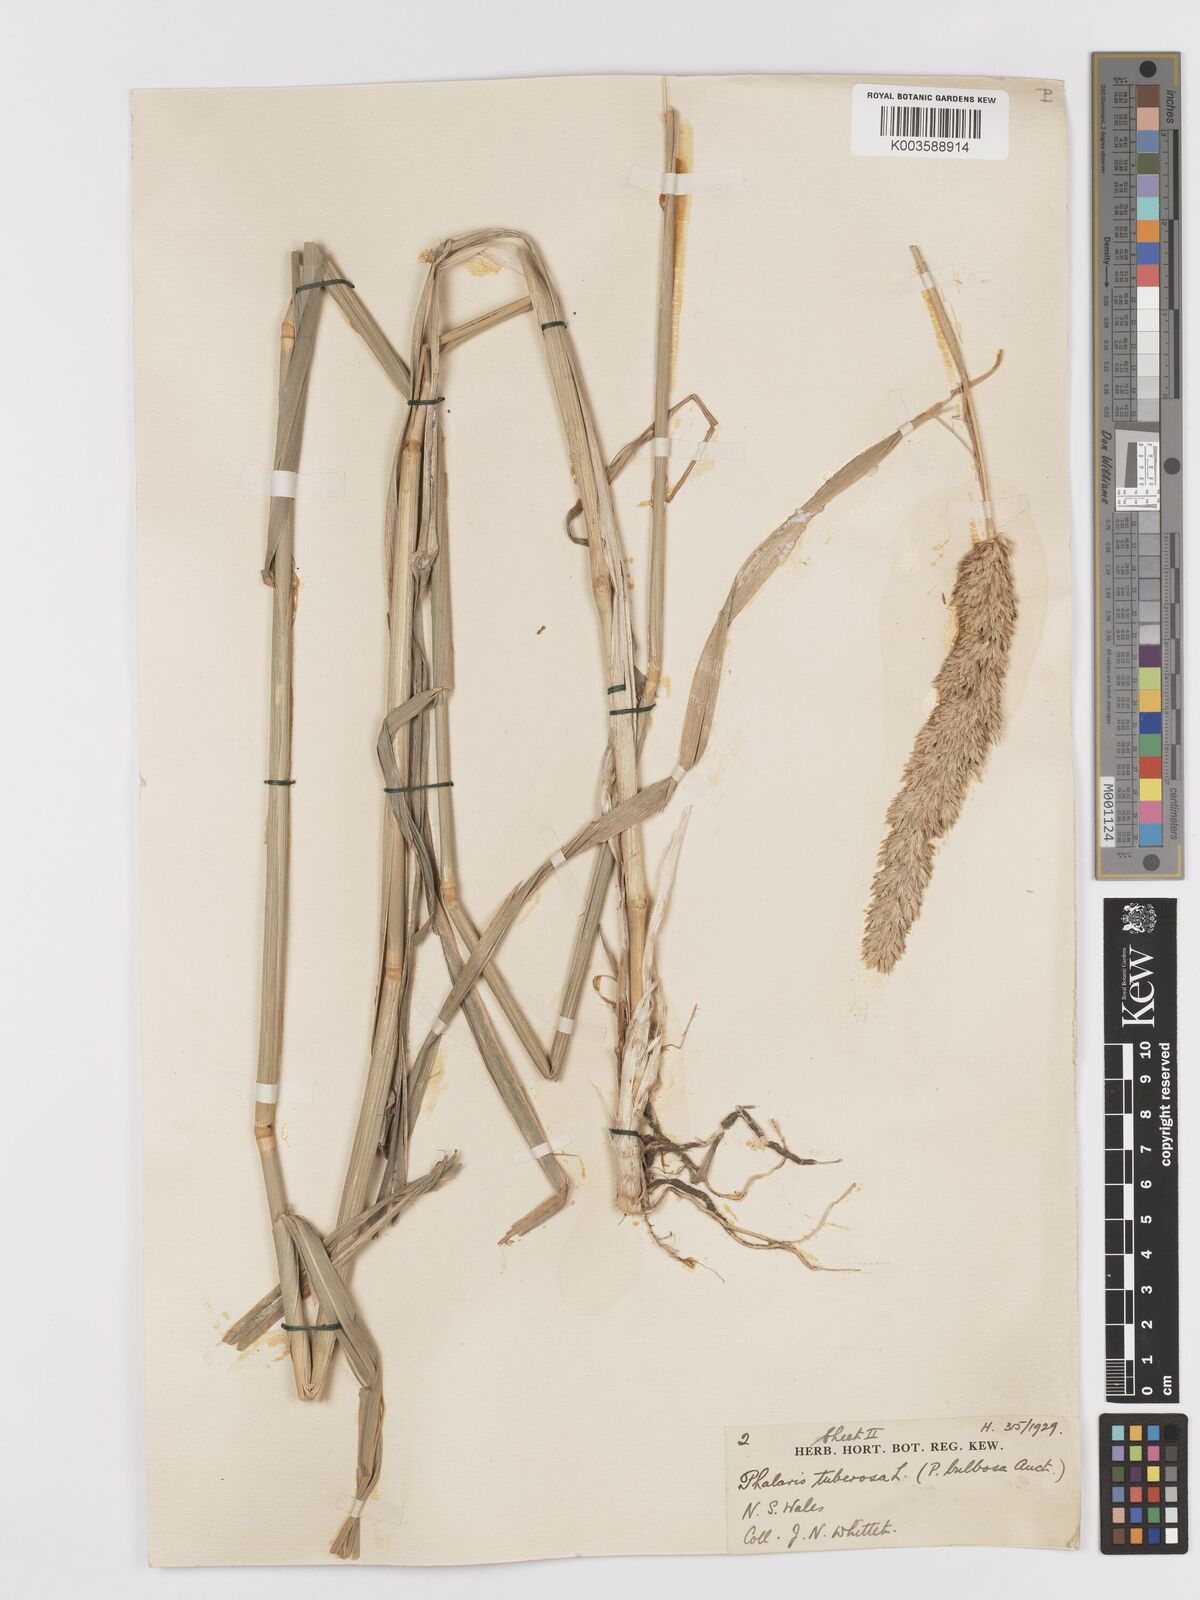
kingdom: Plantae
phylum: Tracheophyta
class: Liliopsida
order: Poales
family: Poaceae
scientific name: Poaceae
